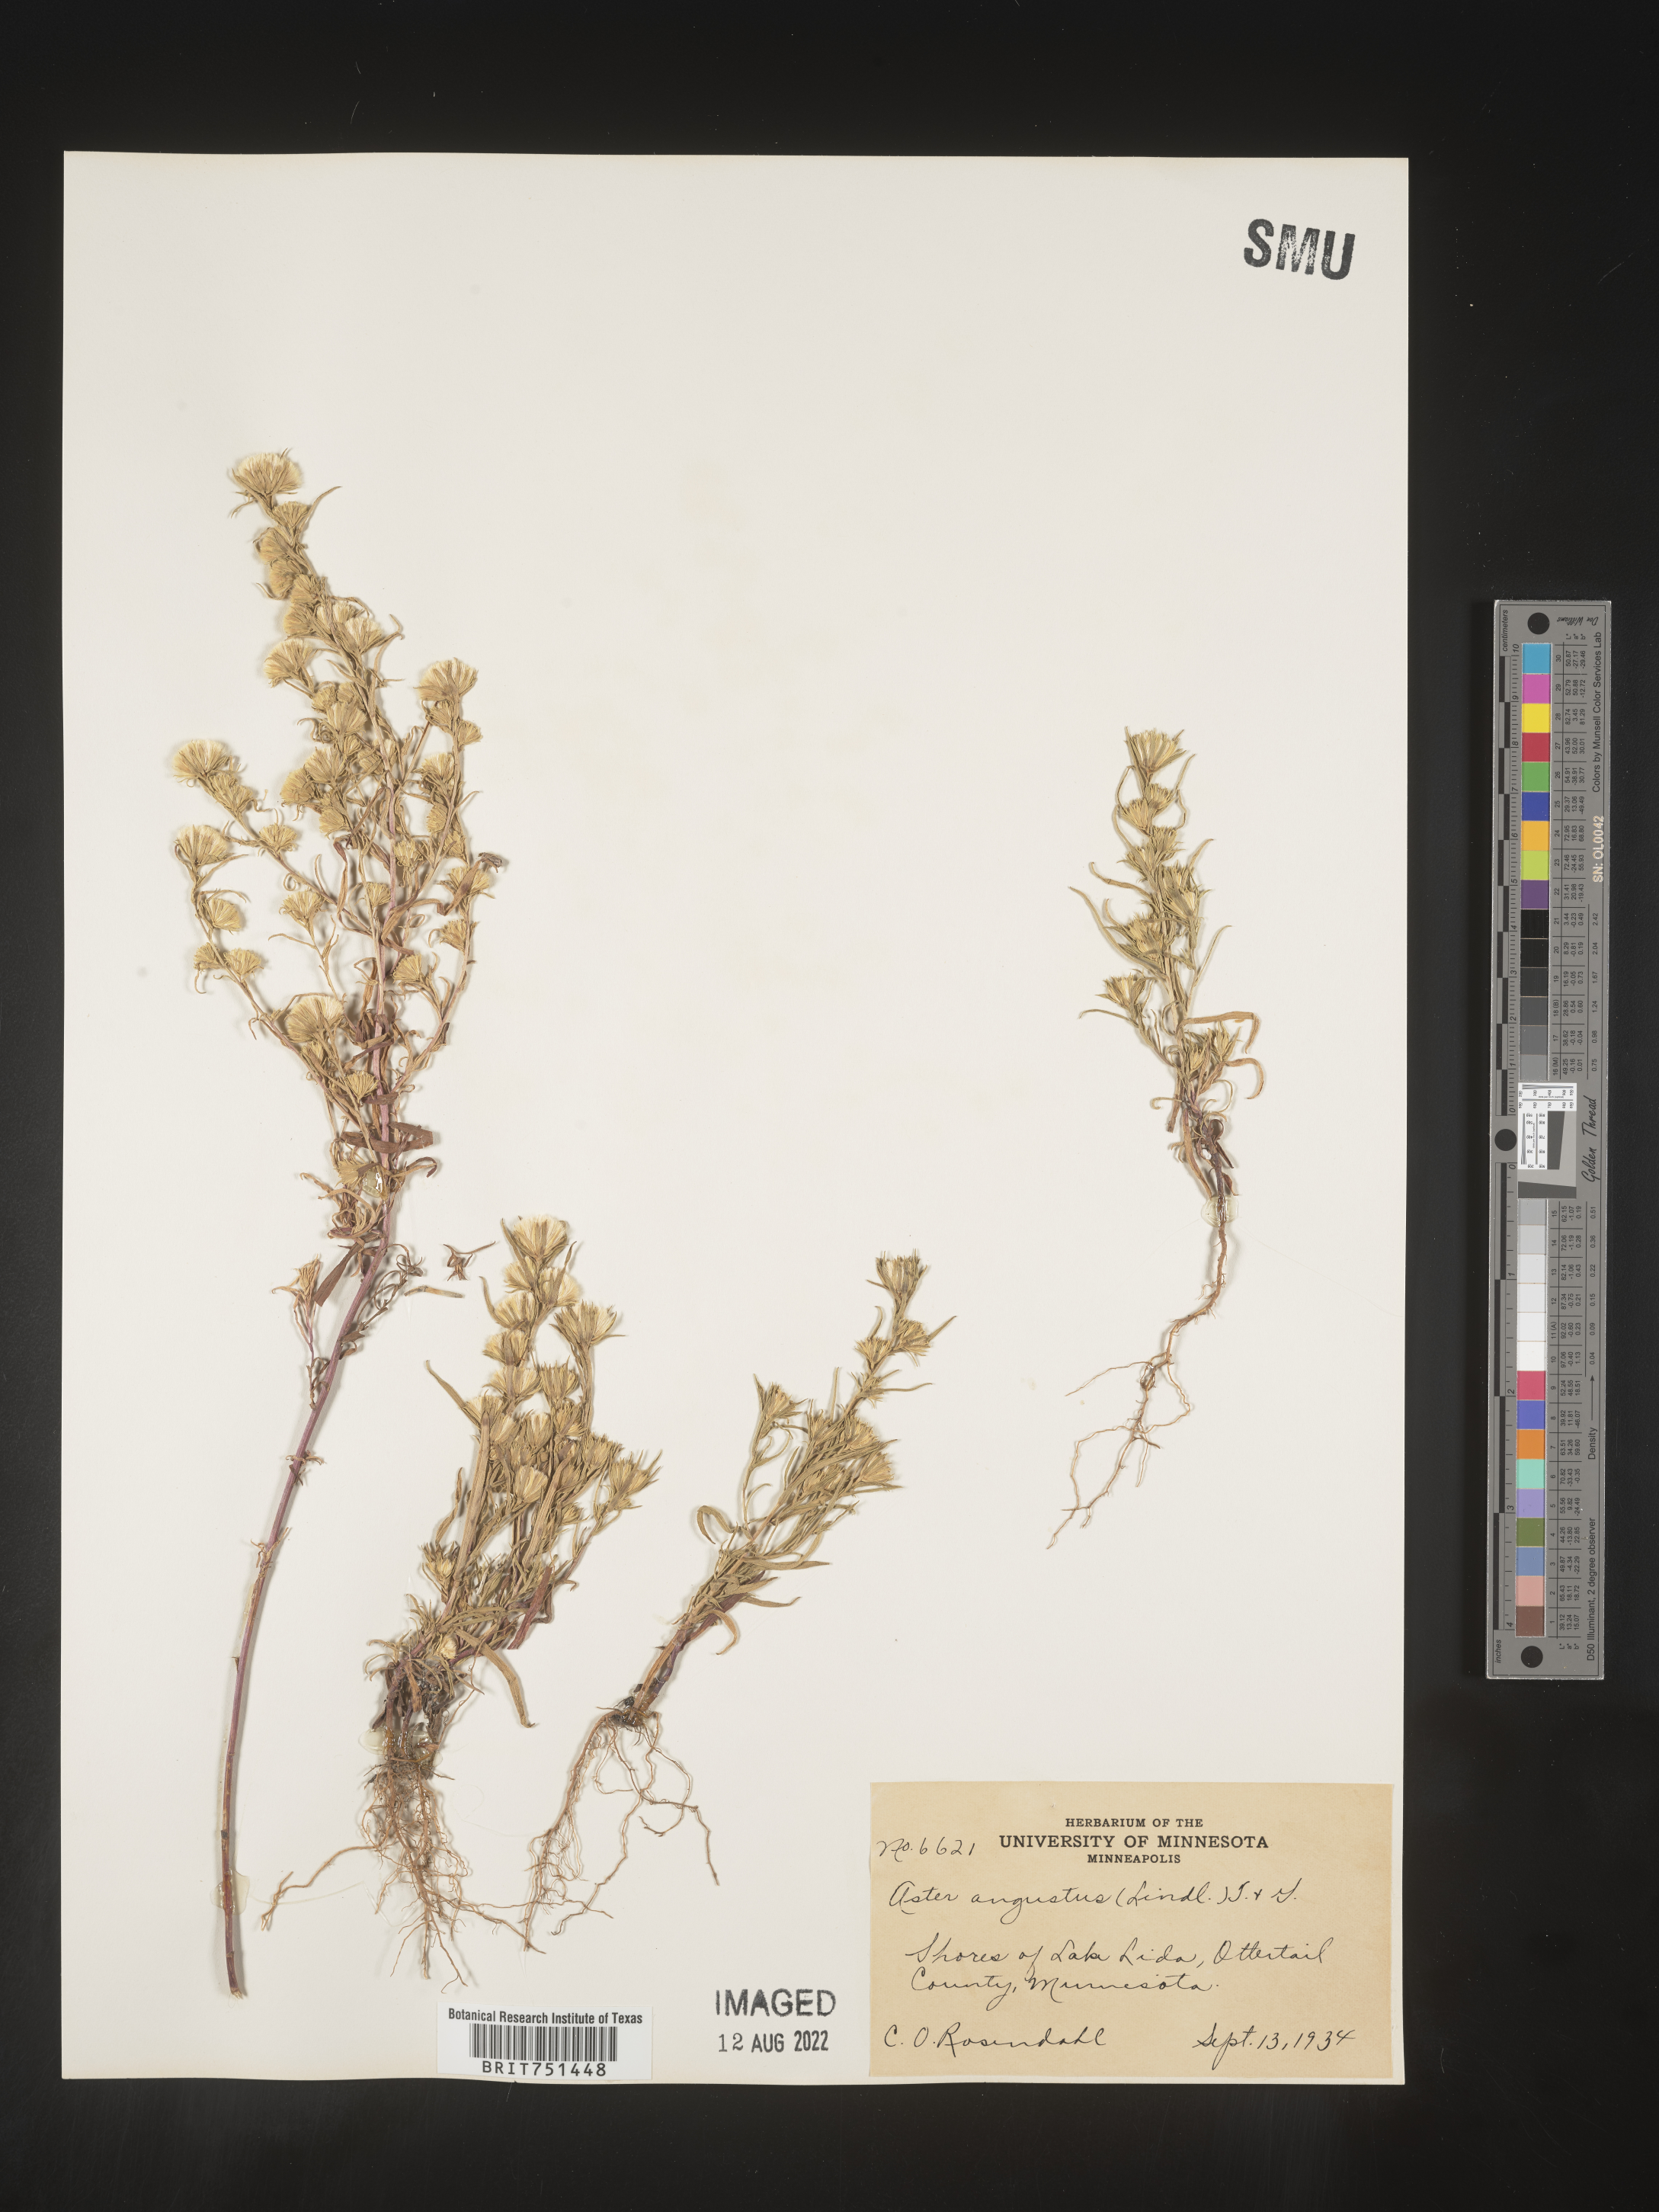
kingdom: Plantae
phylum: Tracheophyta
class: Magnoliopsida
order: Asterales
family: Asteraceae
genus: Symphyotrichum
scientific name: Symphyotrichum ciliatum
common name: Rayless annual aster
